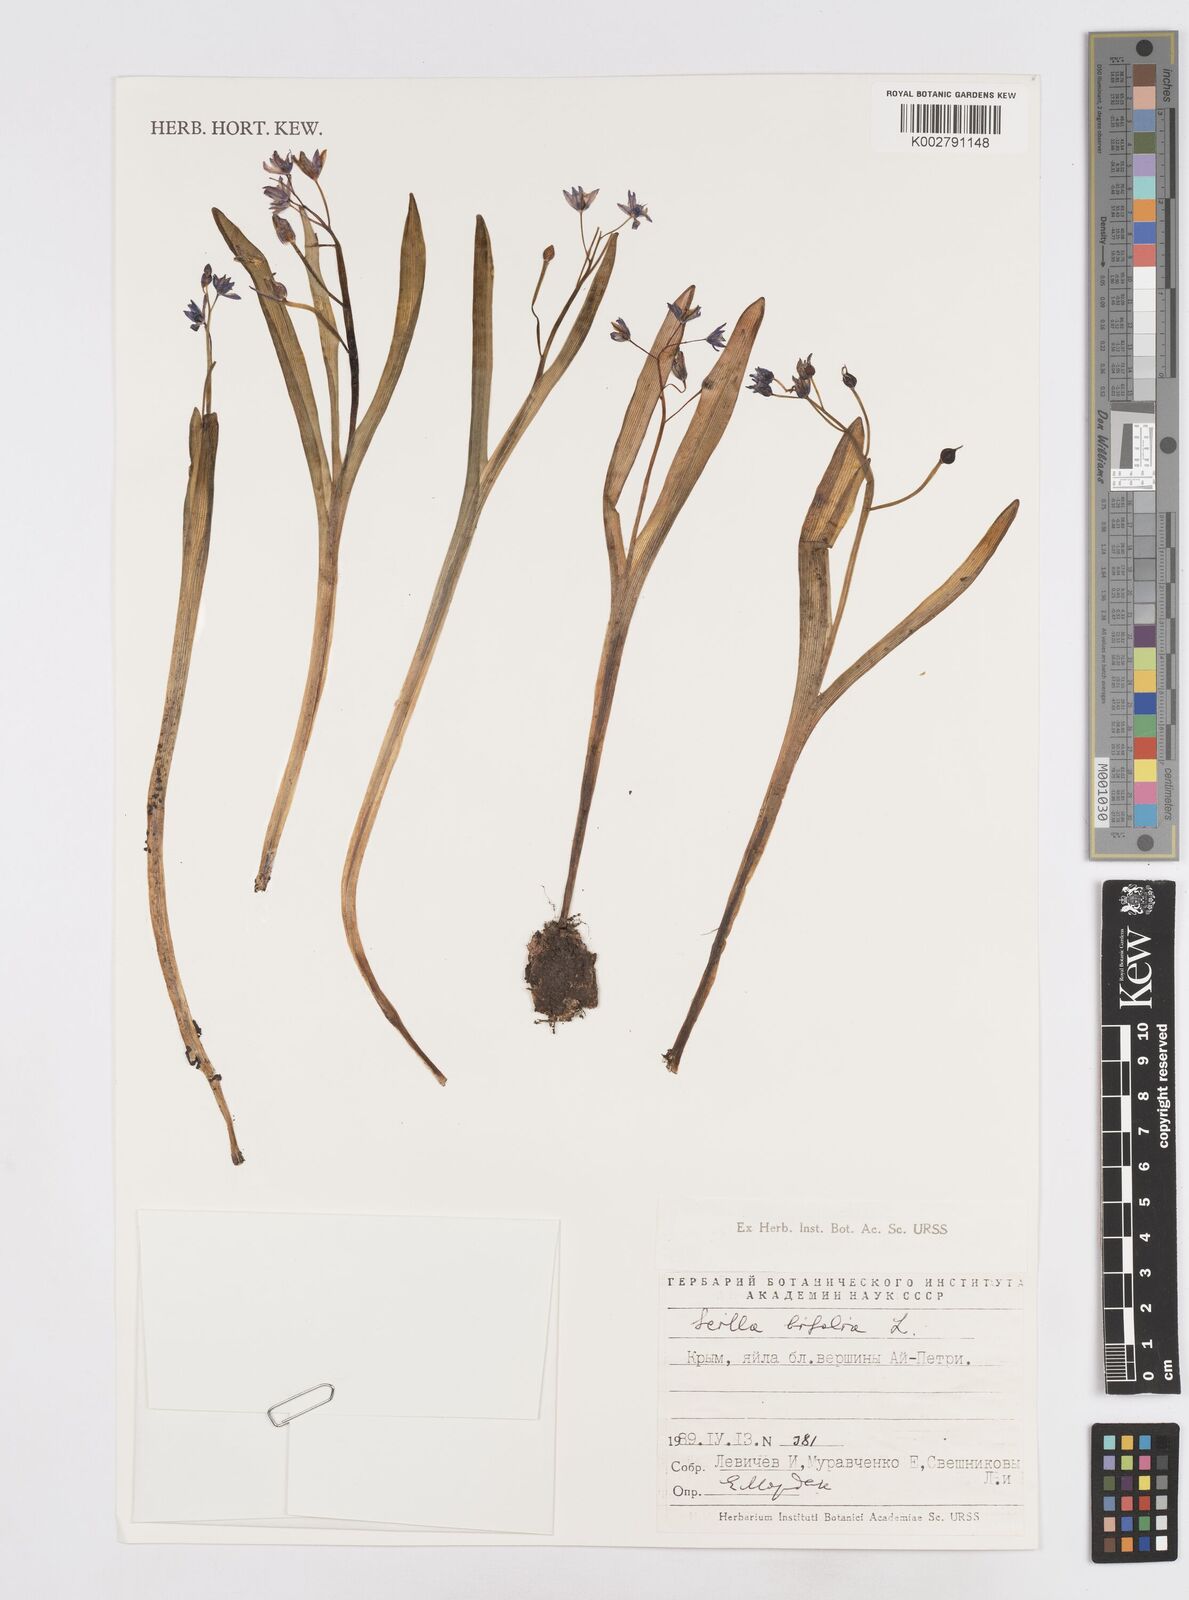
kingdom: Plantae
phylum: Tracheophyta
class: Liliopsida
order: Asparagales
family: Asparagaceae
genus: Scilla
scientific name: Scilla bifolia
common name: Alpine squill
